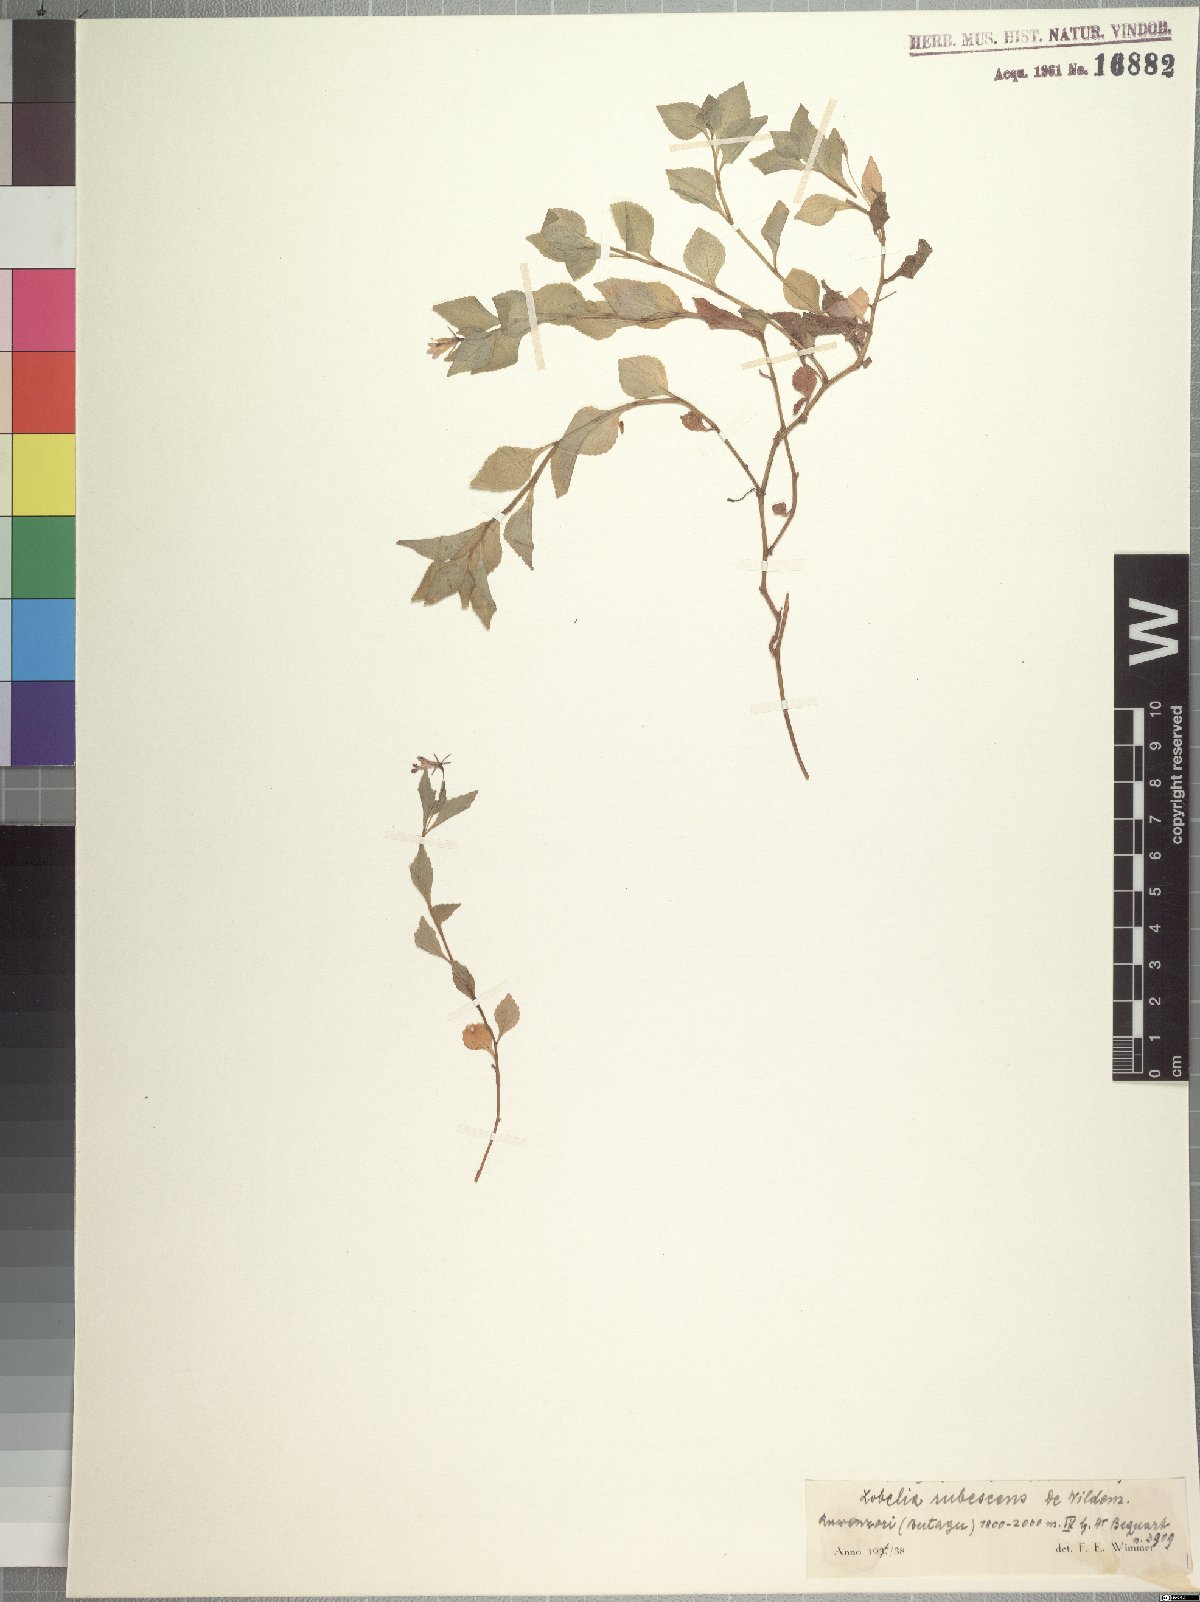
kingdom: Plantae
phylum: Tracheophyta
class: Magnoliopsida
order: Asterales
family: Campanulaceae
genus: Lobelia
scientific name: Lobelia rubescens
